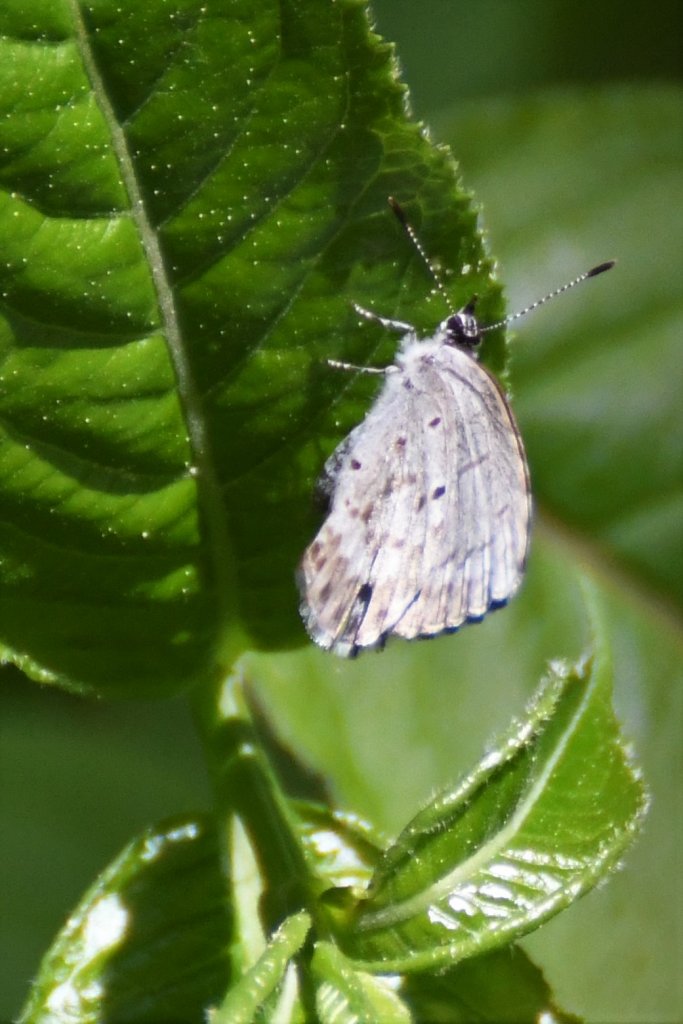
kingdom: Animalia
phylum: Arthropoda
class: Insecta
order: Lepidoptera
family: Lycaenidae
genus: Celastrina
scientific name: Celastrina lucia
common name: Northern Spring Azure
